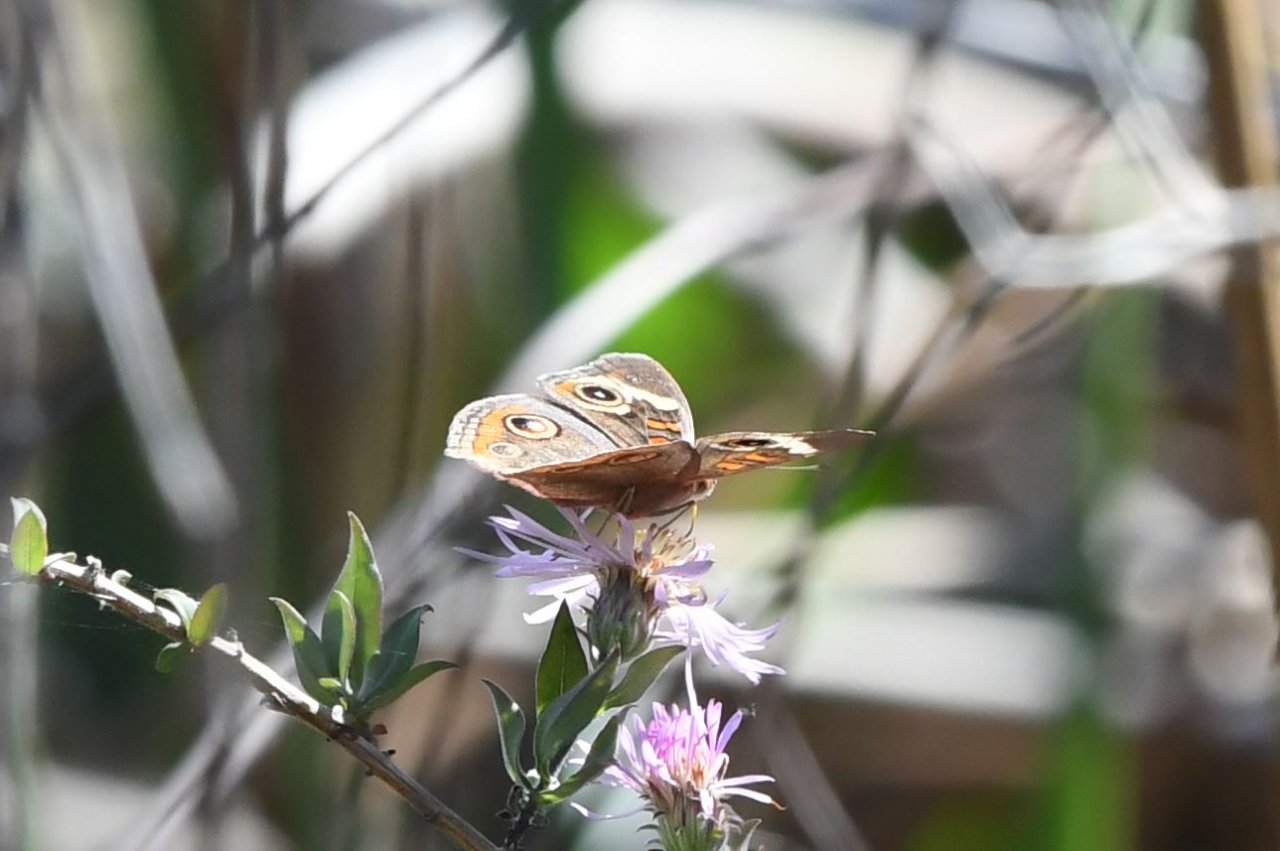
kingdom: Animalia
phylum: Arthropoda
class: Insecta
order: Lepidoptera
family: Nymphalidae
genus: Junonia
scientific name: Junonia coenia
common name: Common Buckeye
